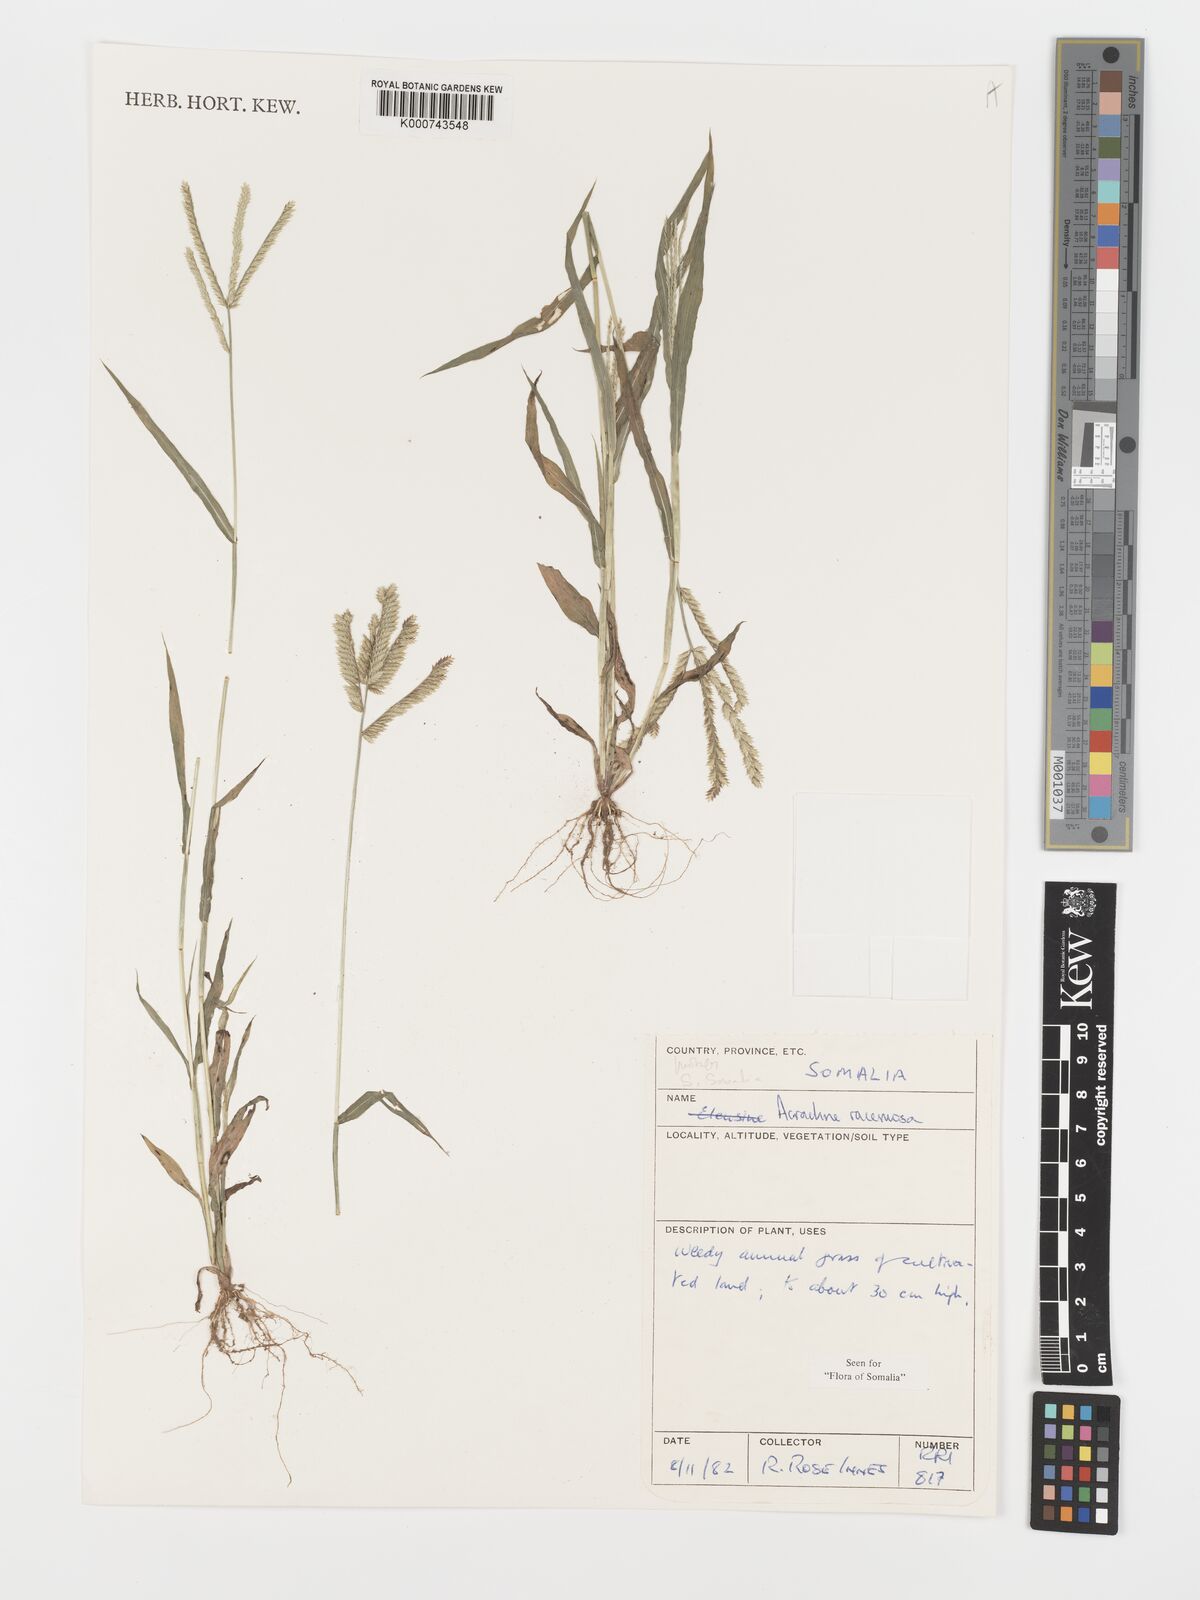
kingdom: Plantae
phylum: Tracheophyta
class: Liliopsida
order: Poales
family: Poaceae
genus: Acrachne
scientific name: Acrachne racemosa
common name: Goosegrass
